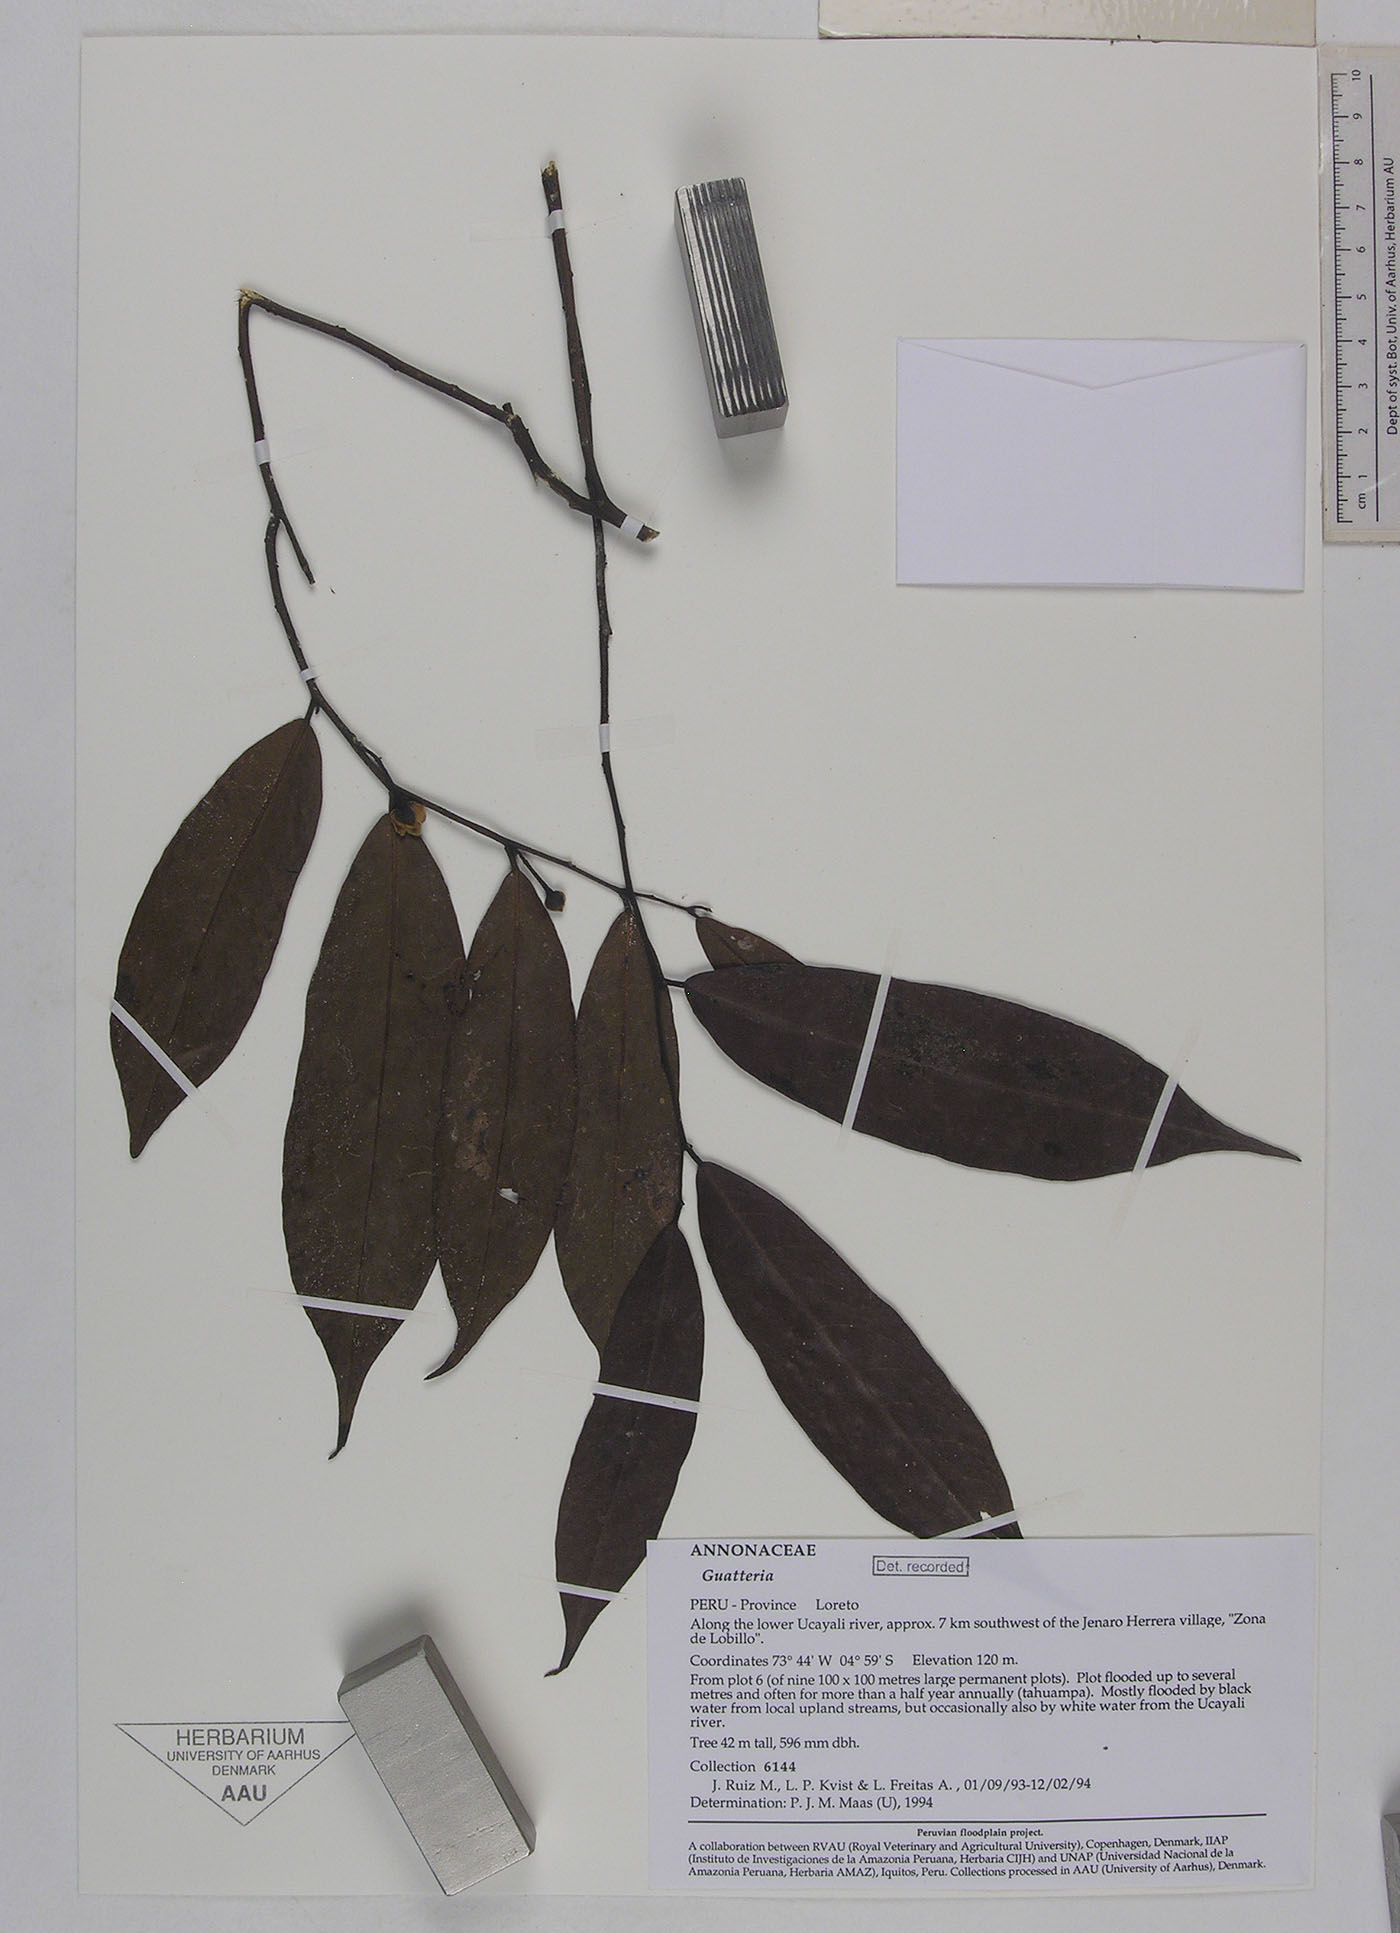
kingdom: Plantae
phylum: Tracheophyta
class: Magnoliopsida
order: Magnoliales
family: Annonaceae
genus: Guatteria
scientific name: Guatteria hirsuta
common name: Laurel
